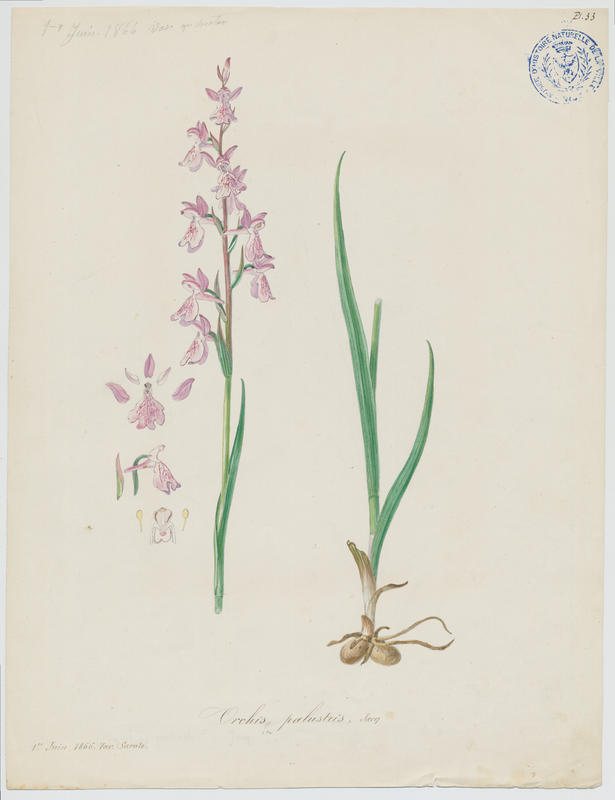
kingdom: Plantae
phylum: Tracheophyta
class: Liliopsida
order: Asparagales
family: Orchidaceae
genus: Anacamptis
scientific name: Anacamptis palustris
